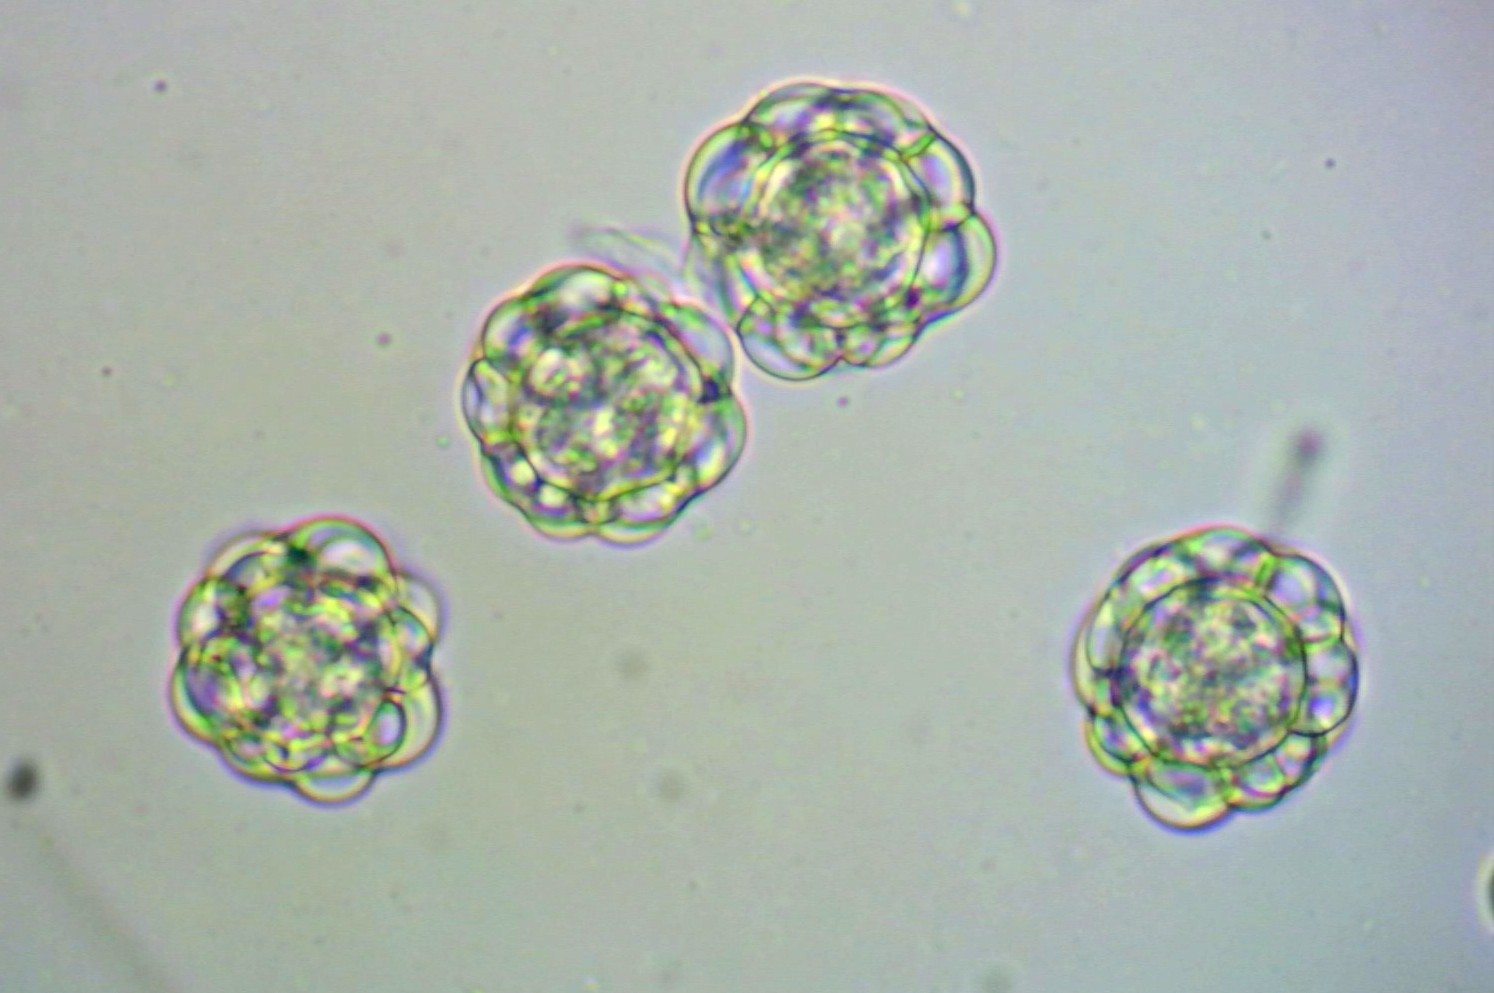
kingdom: Fungi
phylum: Ascomycota
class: Sordariomycetes
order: Hypocreales
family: Hypocreaceae
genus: Hypomyces
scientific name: Hypomyces papulasporae
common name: jordtunge-snylteskorpe
